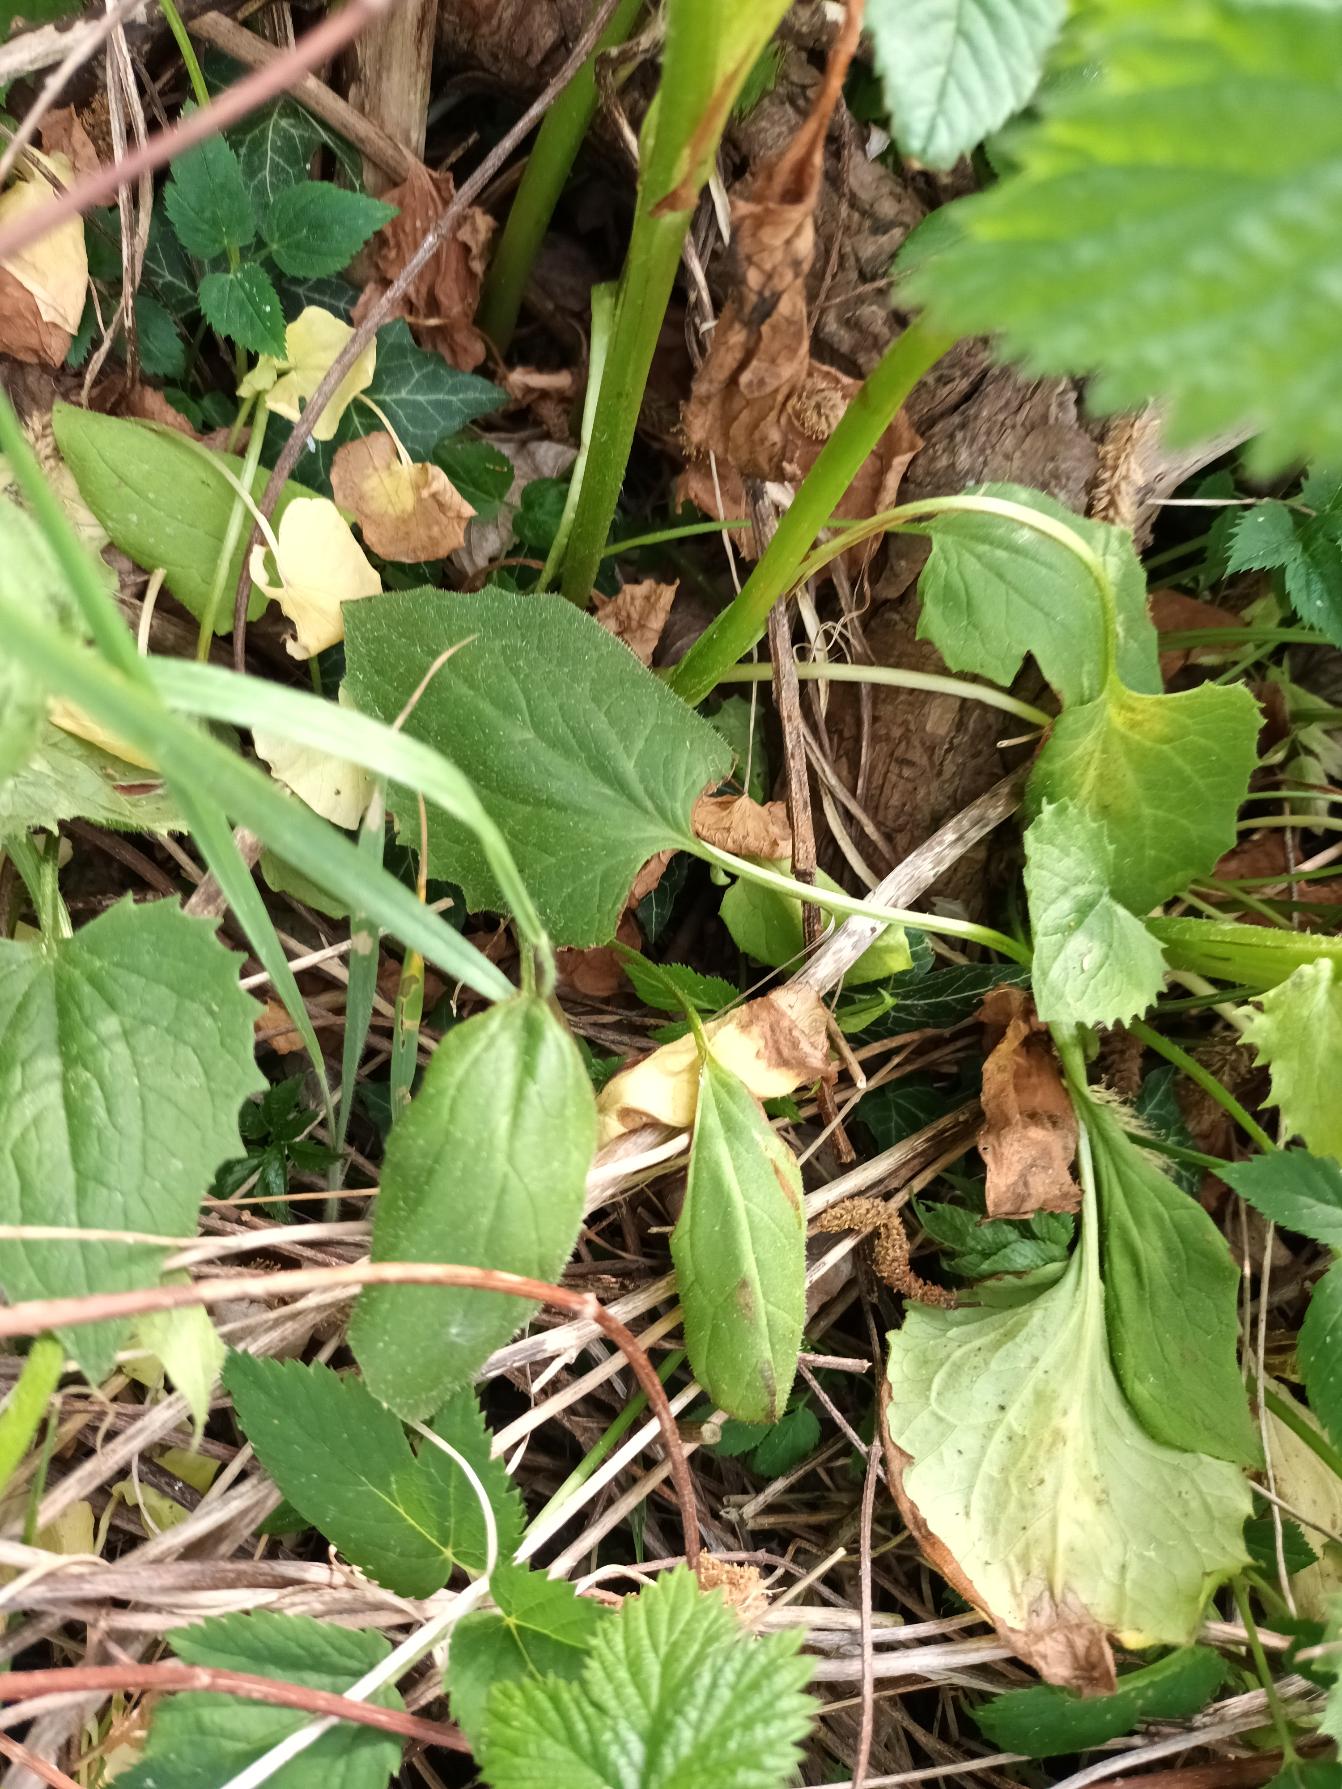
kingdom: Plantae
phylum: Tracheophyta
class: Magnoliopsida
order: Asterales
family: Asteraceae
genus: Doronicum
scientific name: Doronicum excelsum
